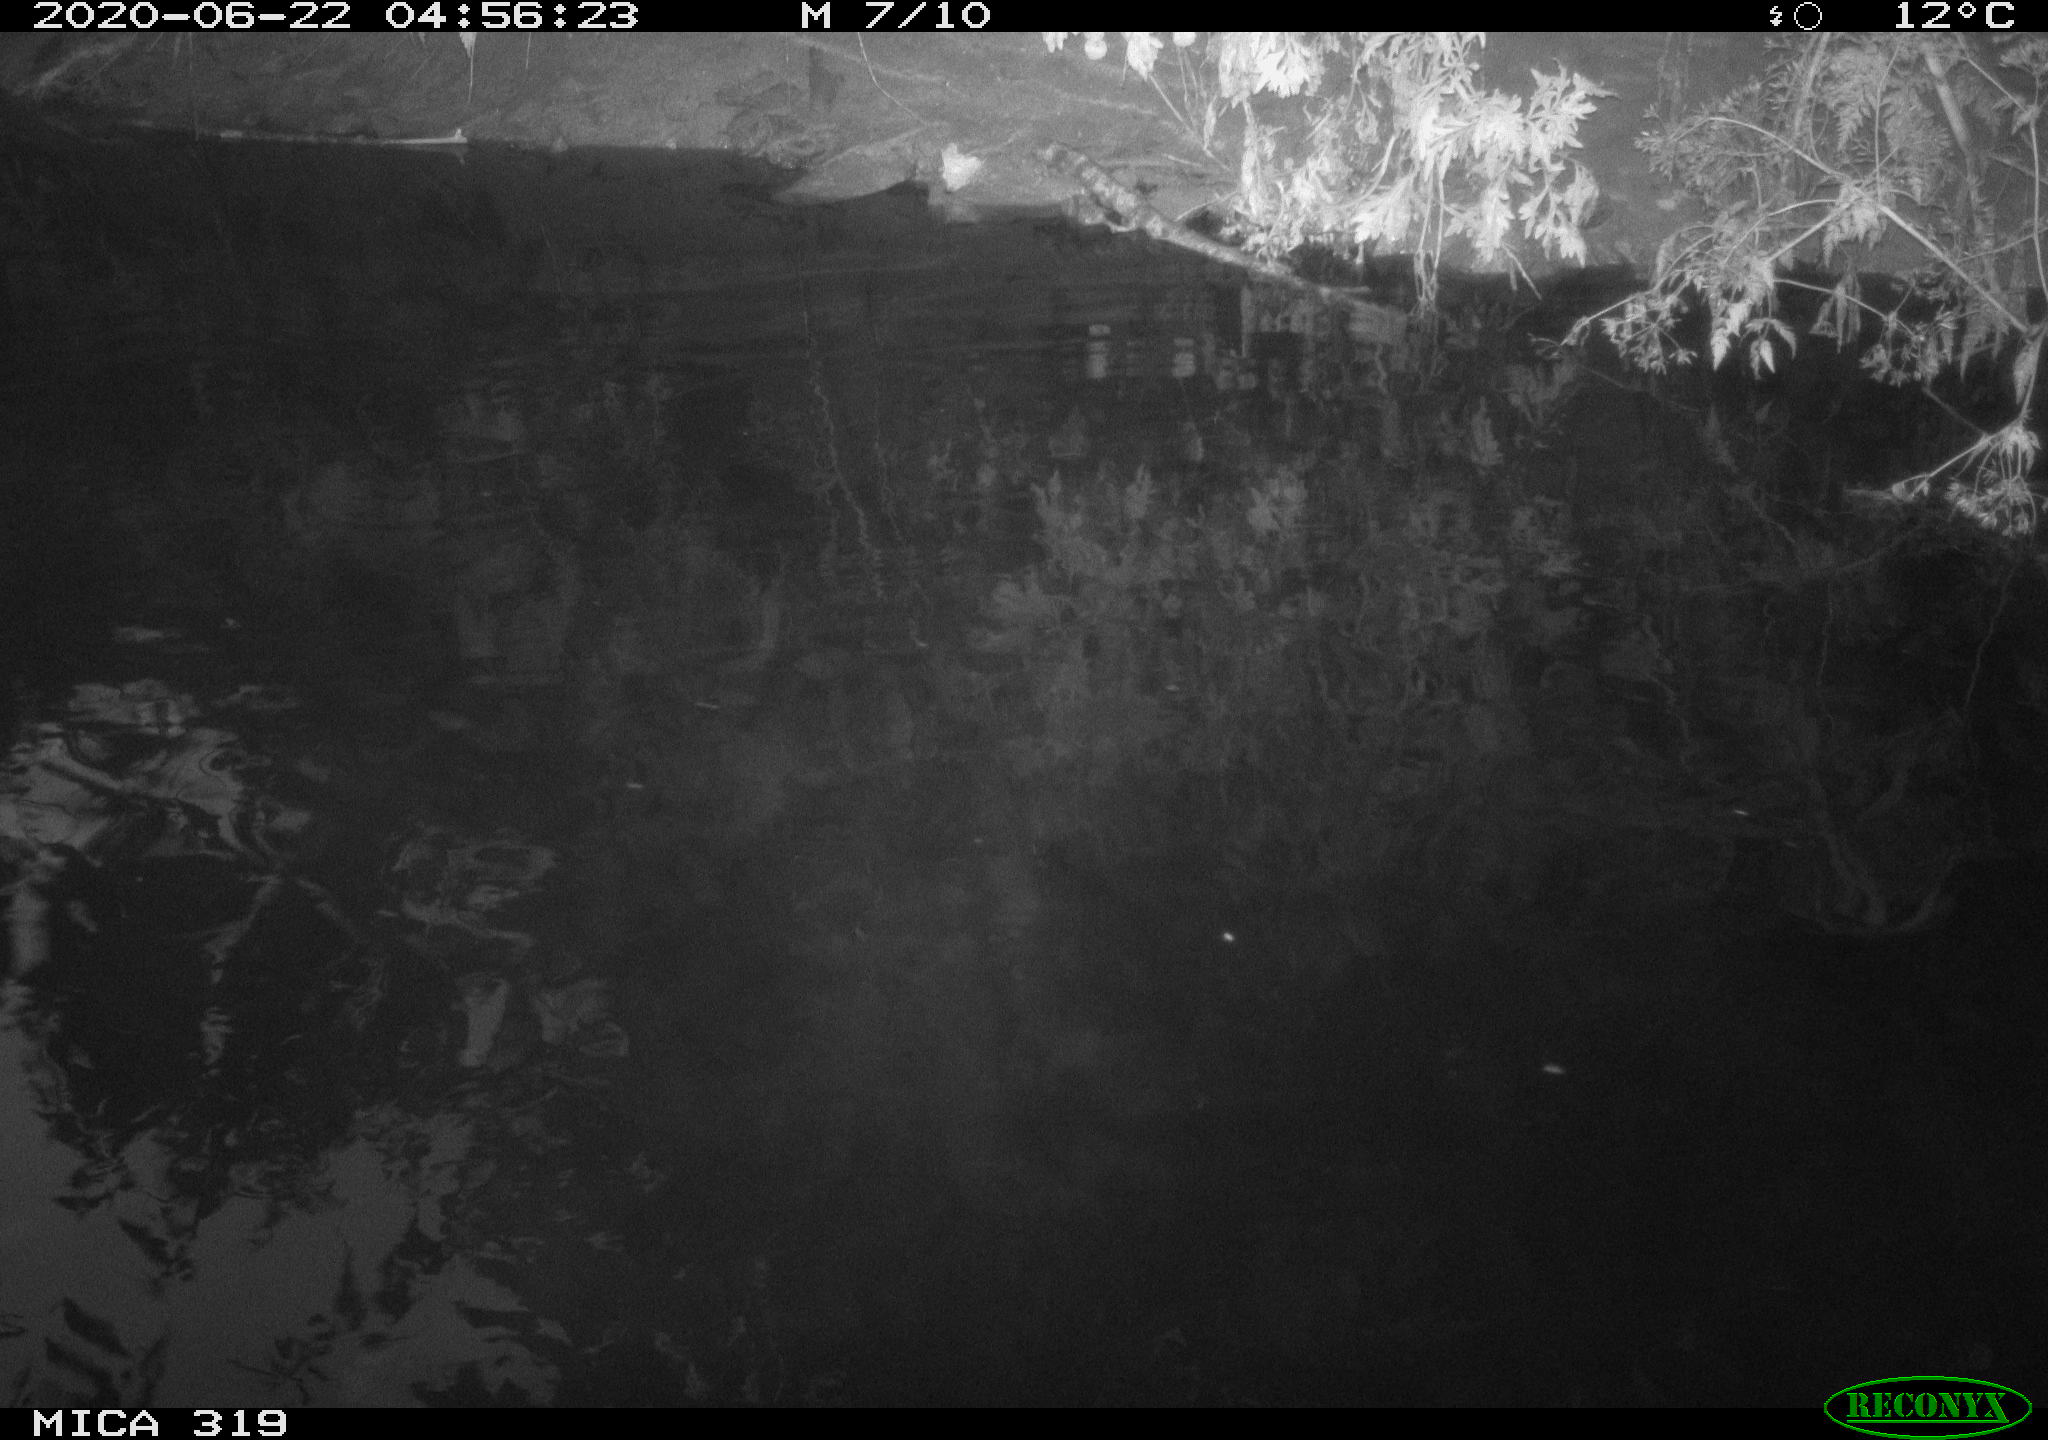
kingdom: Animalia
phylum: Chordata
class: Aves
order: Anseriformes
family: Anatidae
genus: Anas
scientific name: Anas platyrhynchos
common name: Mallard
